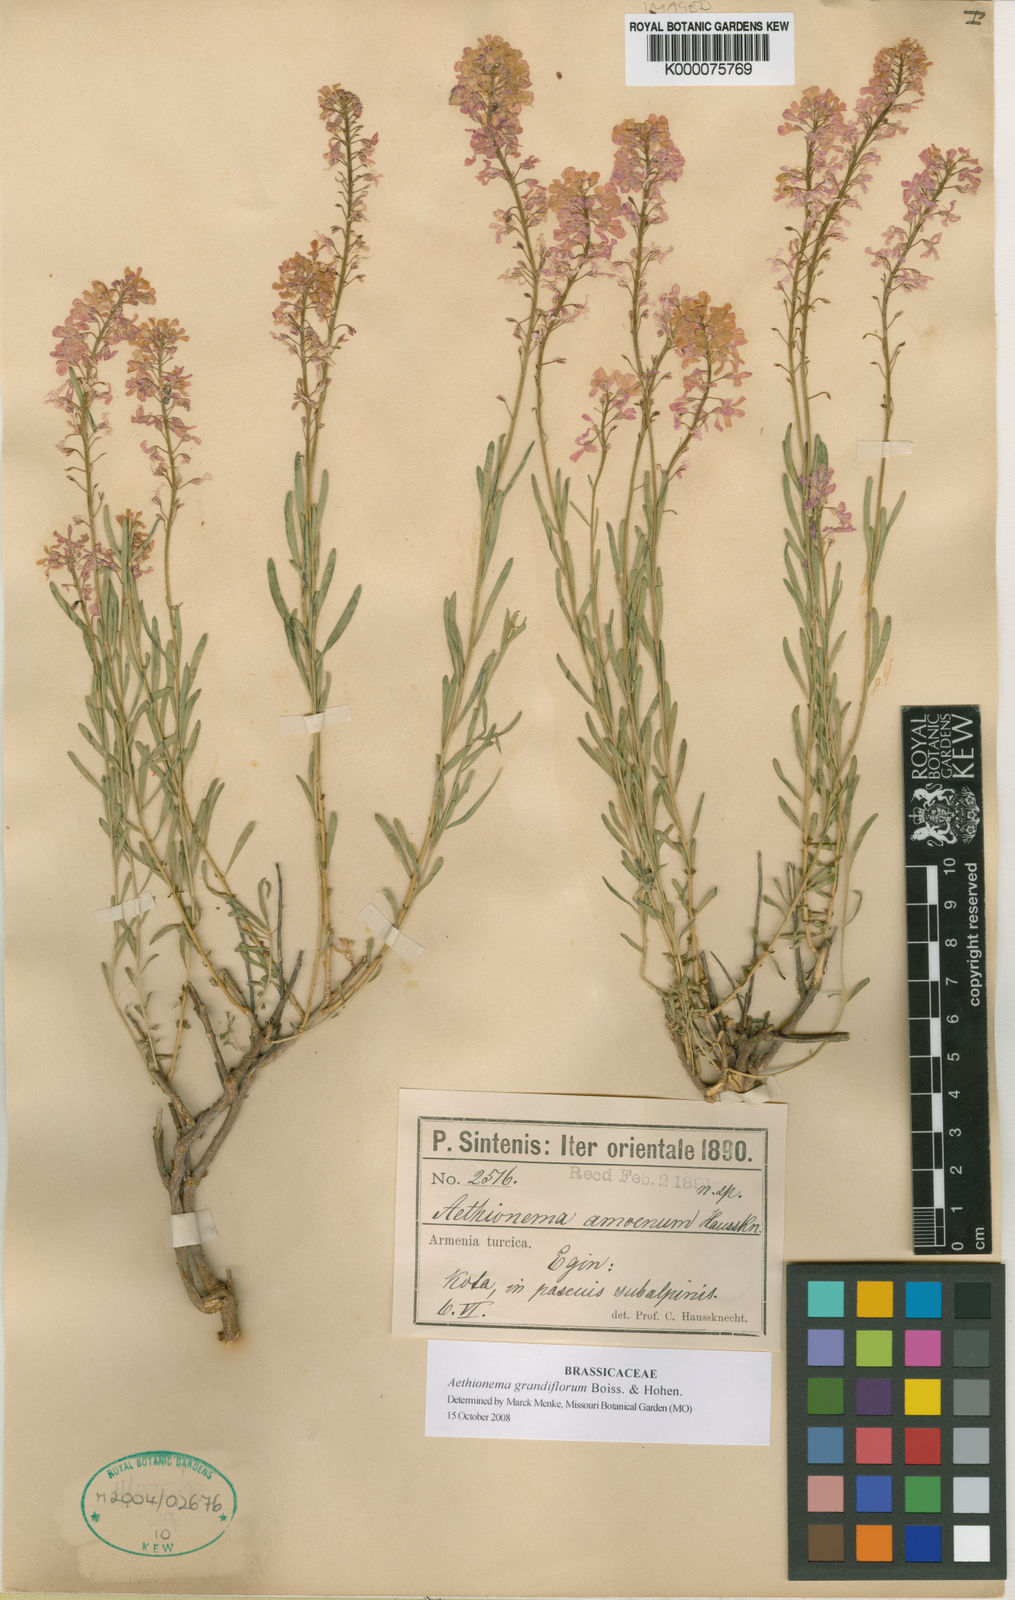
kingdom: Plantae
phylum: Tracheophyta
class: Magnoliopsida
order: Brassicales
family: Brassicaceae
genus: Aethionema
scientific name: Aethionema grandiflorum
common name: Persian stonecress
